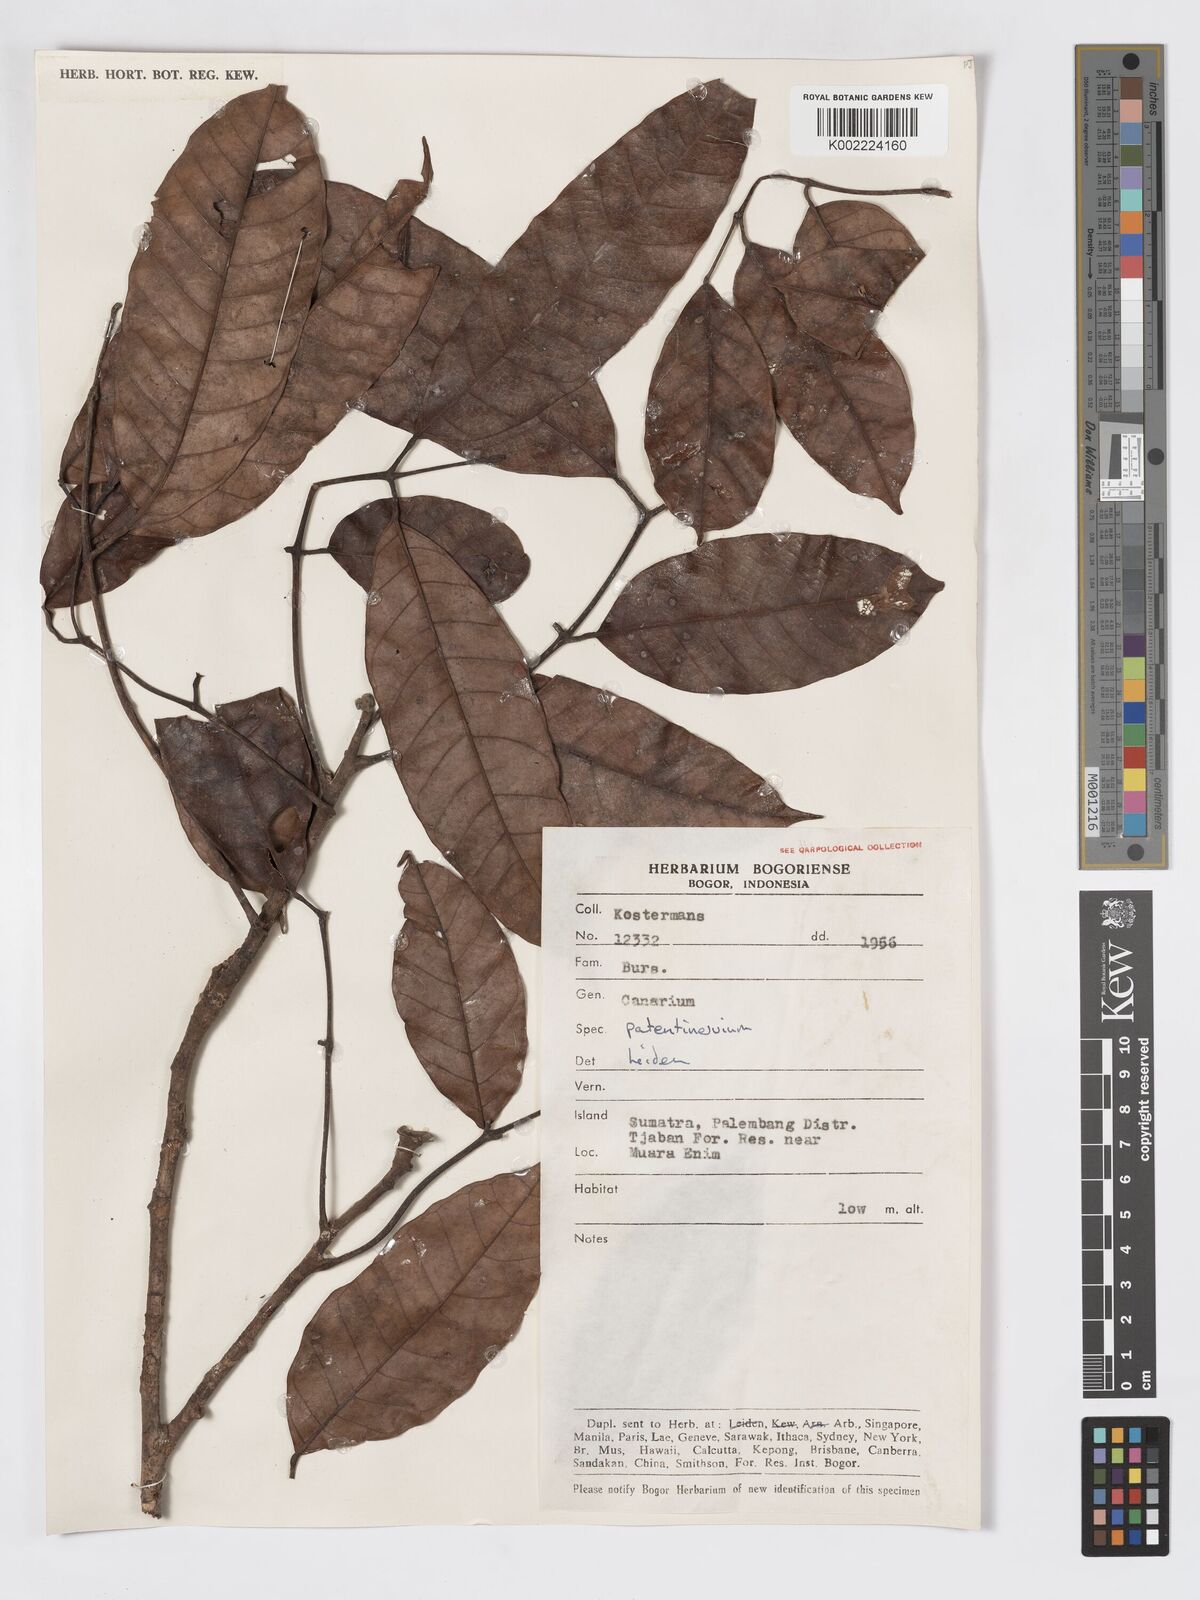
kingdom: Plantae
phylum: Tracheophyta
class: Magnoliopsida
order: Sapindales
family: Burseraceae
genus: Canarium
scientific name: Canarium patentinervium
